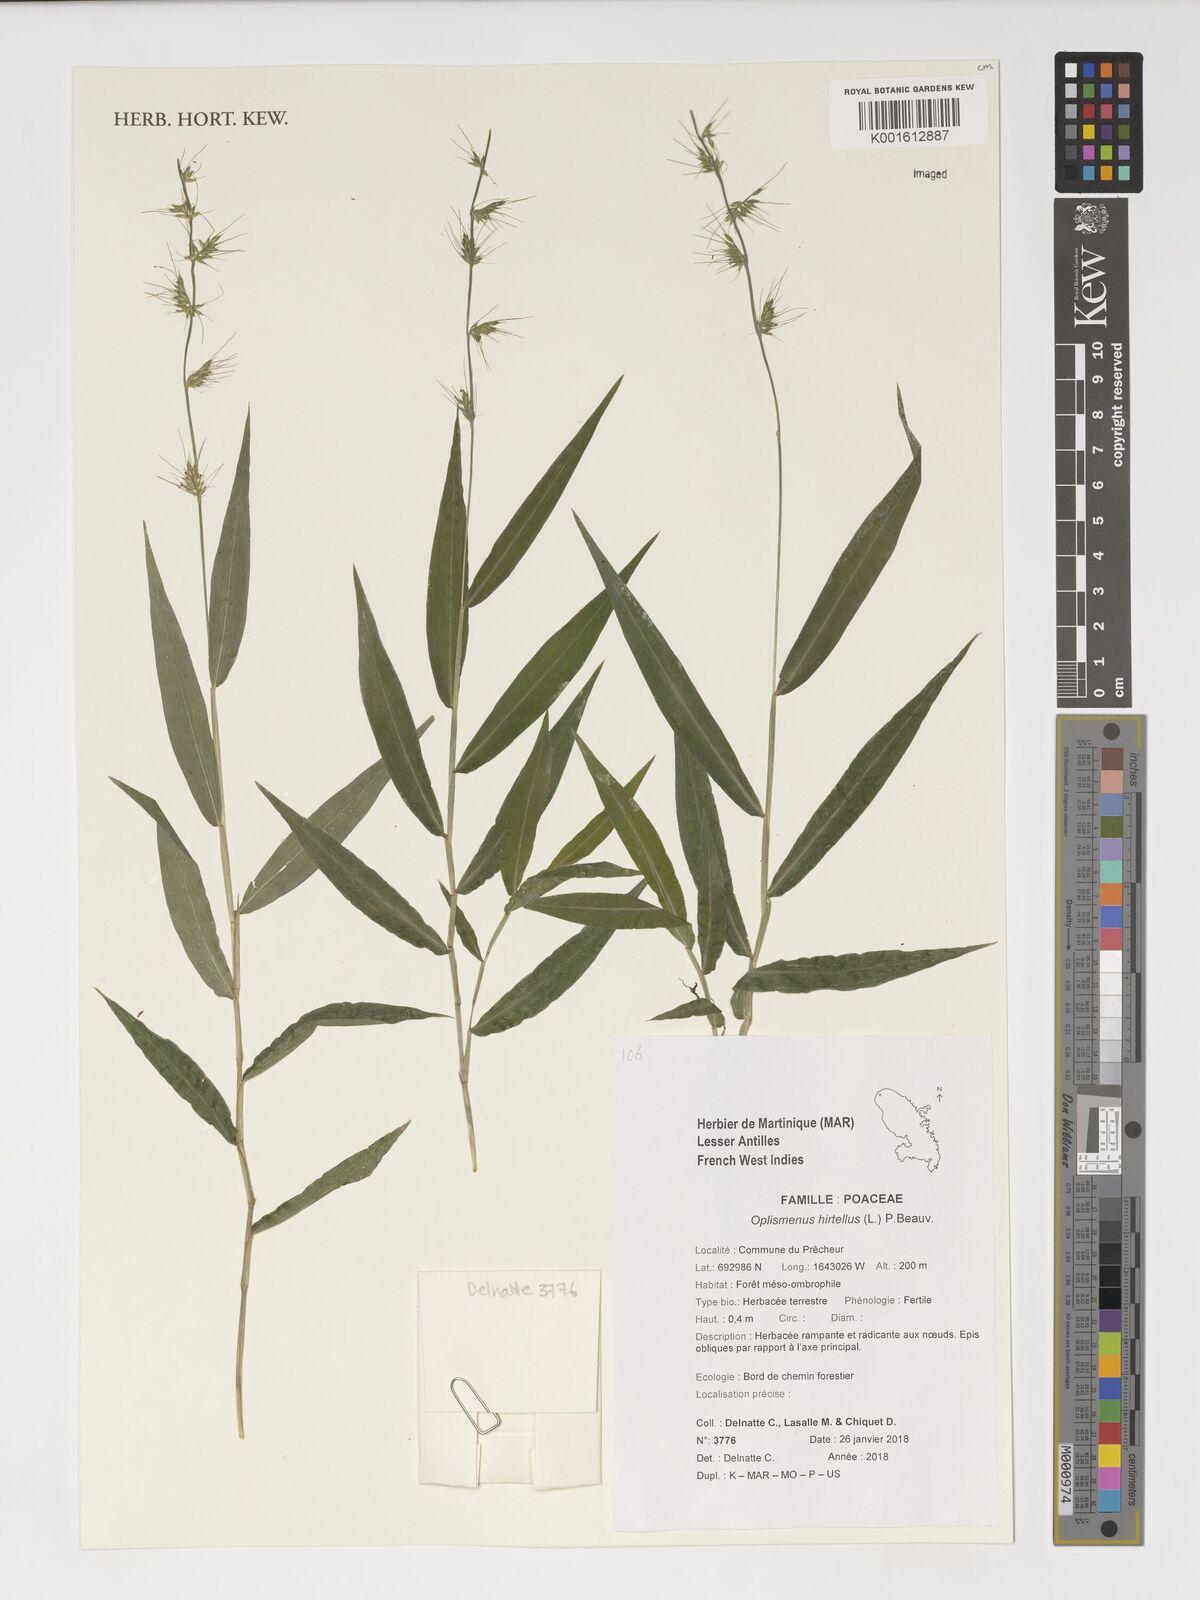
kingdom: Plantae
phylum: Tracheophyta
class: Liliopsida
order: Poales
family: Poaceae
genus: Oplismenus
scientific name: Oplismenus hirtellus
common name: Basketgrass
